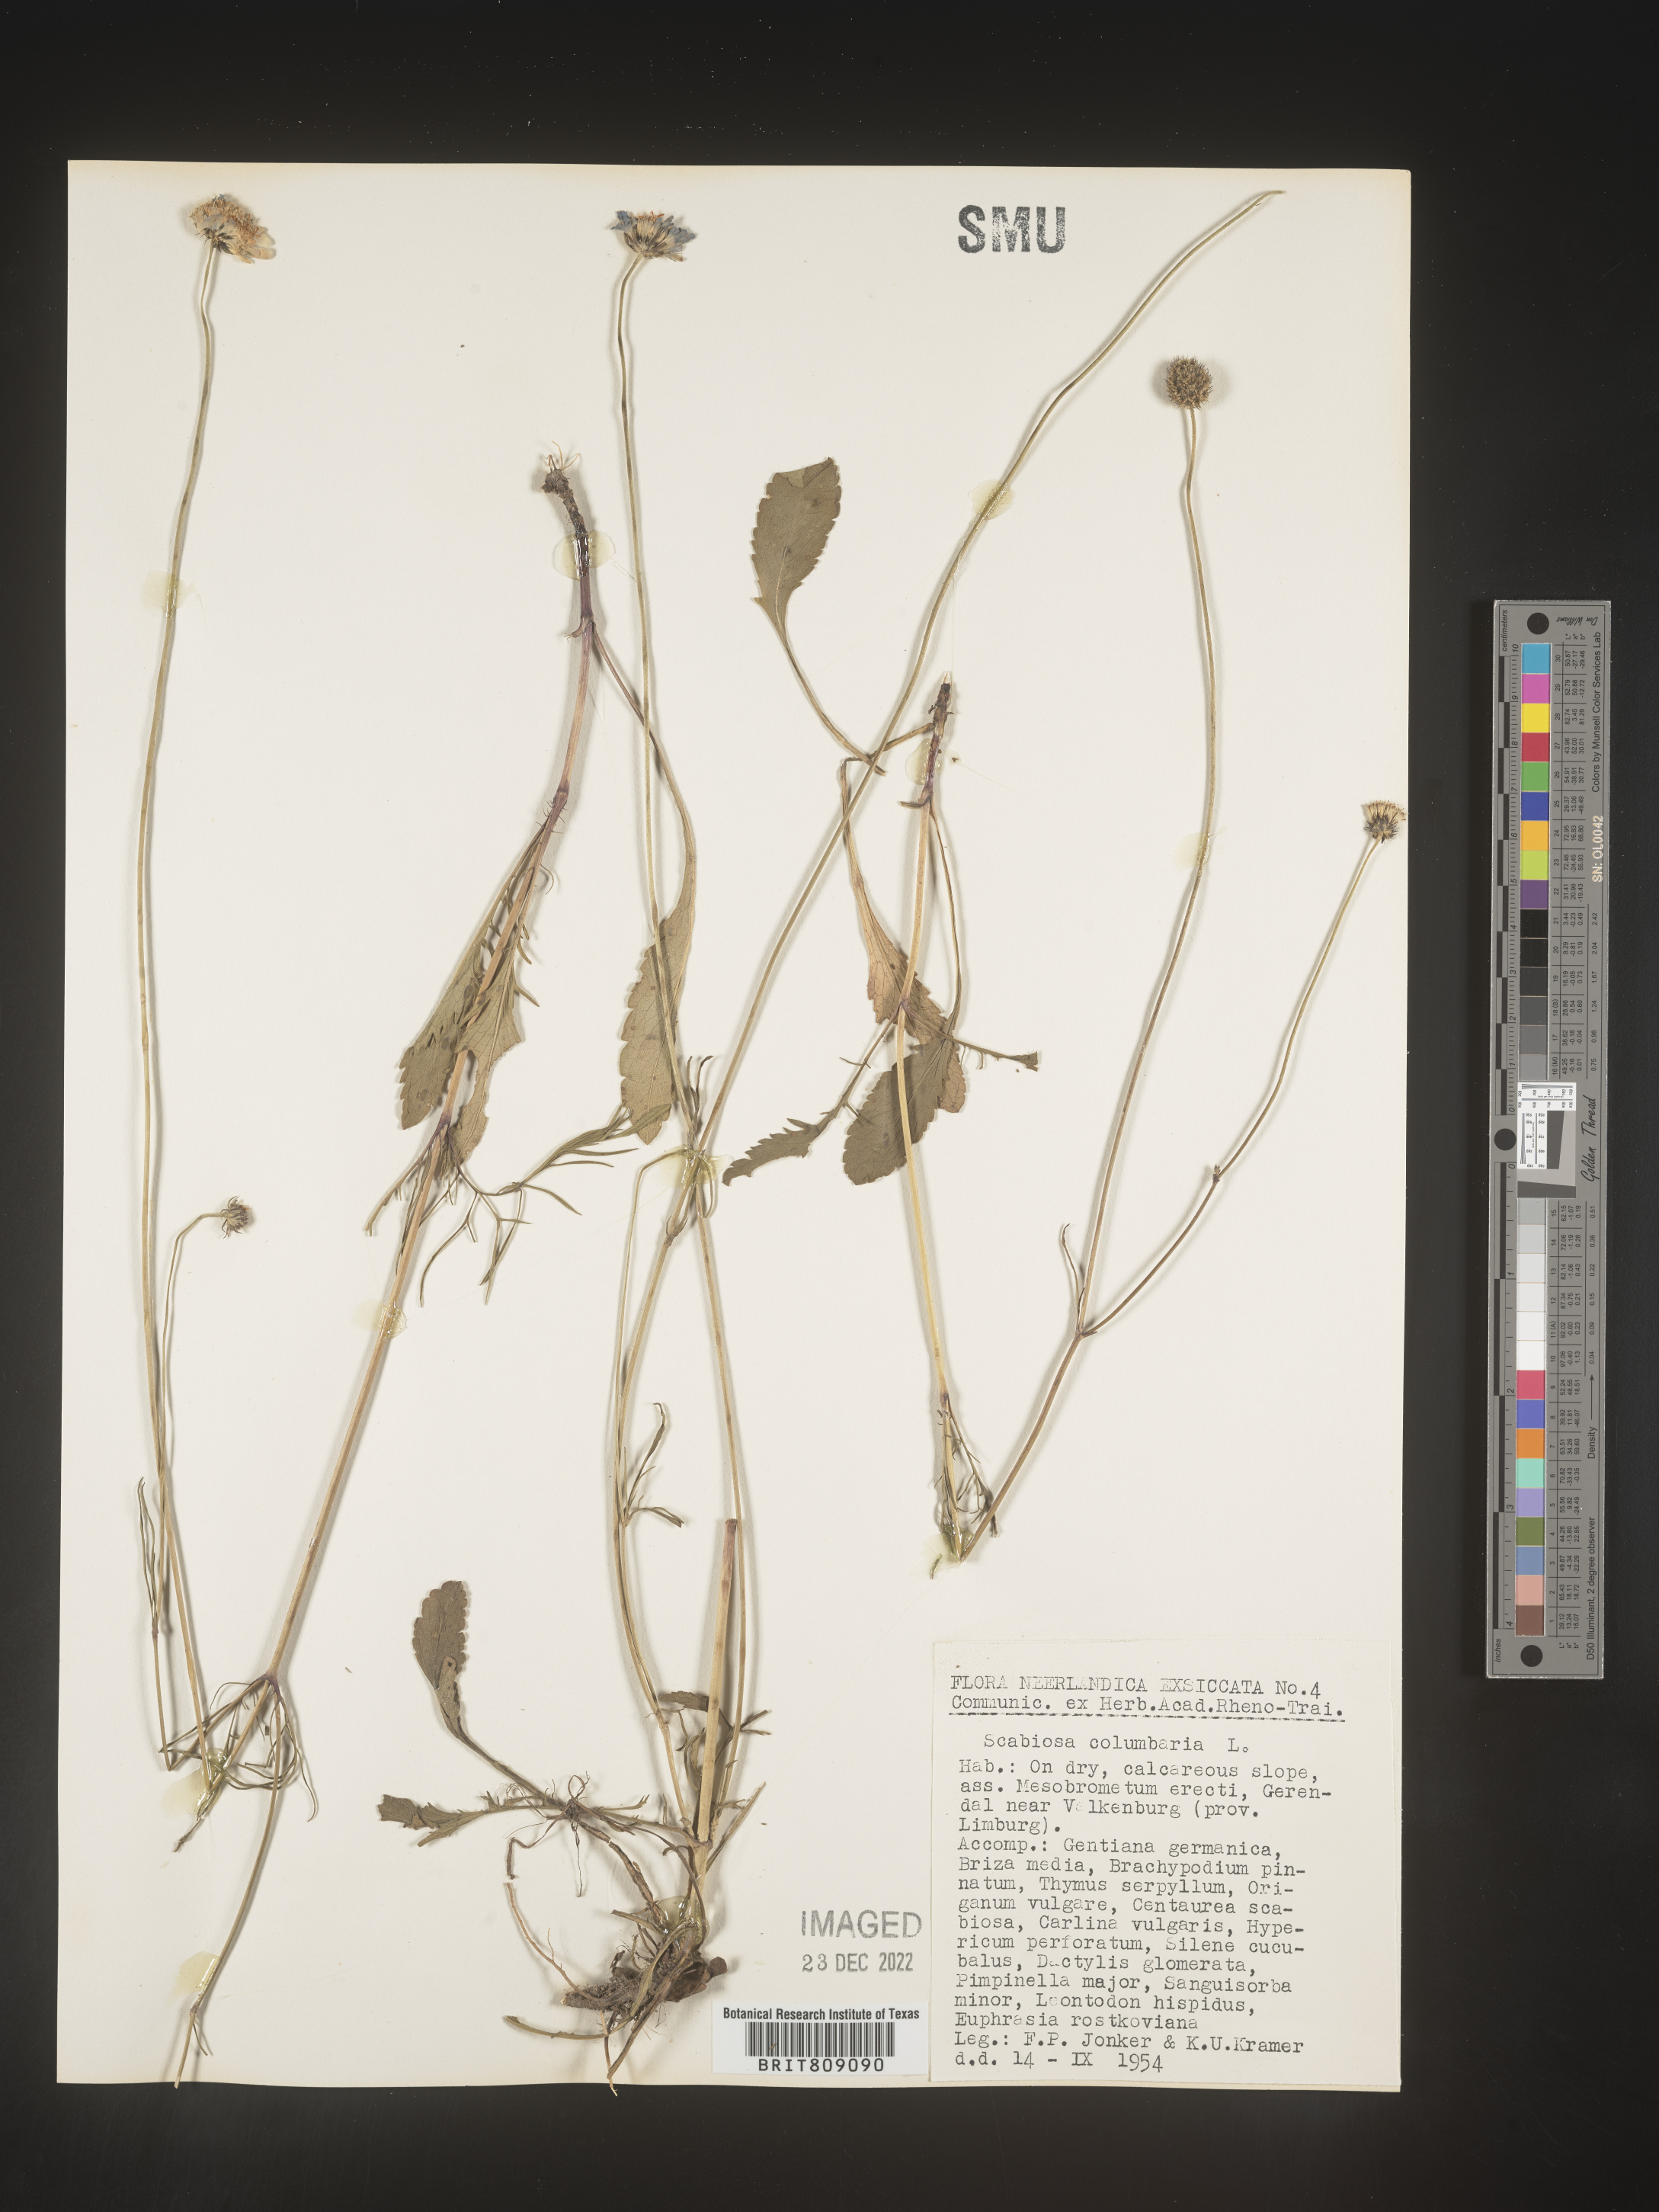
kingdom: Plantae
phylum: Tracheophyta
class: Magnoliopsida
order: Dipsacales
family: Caprifoliaceae
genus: Scabiosa
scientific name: Scabiosa
